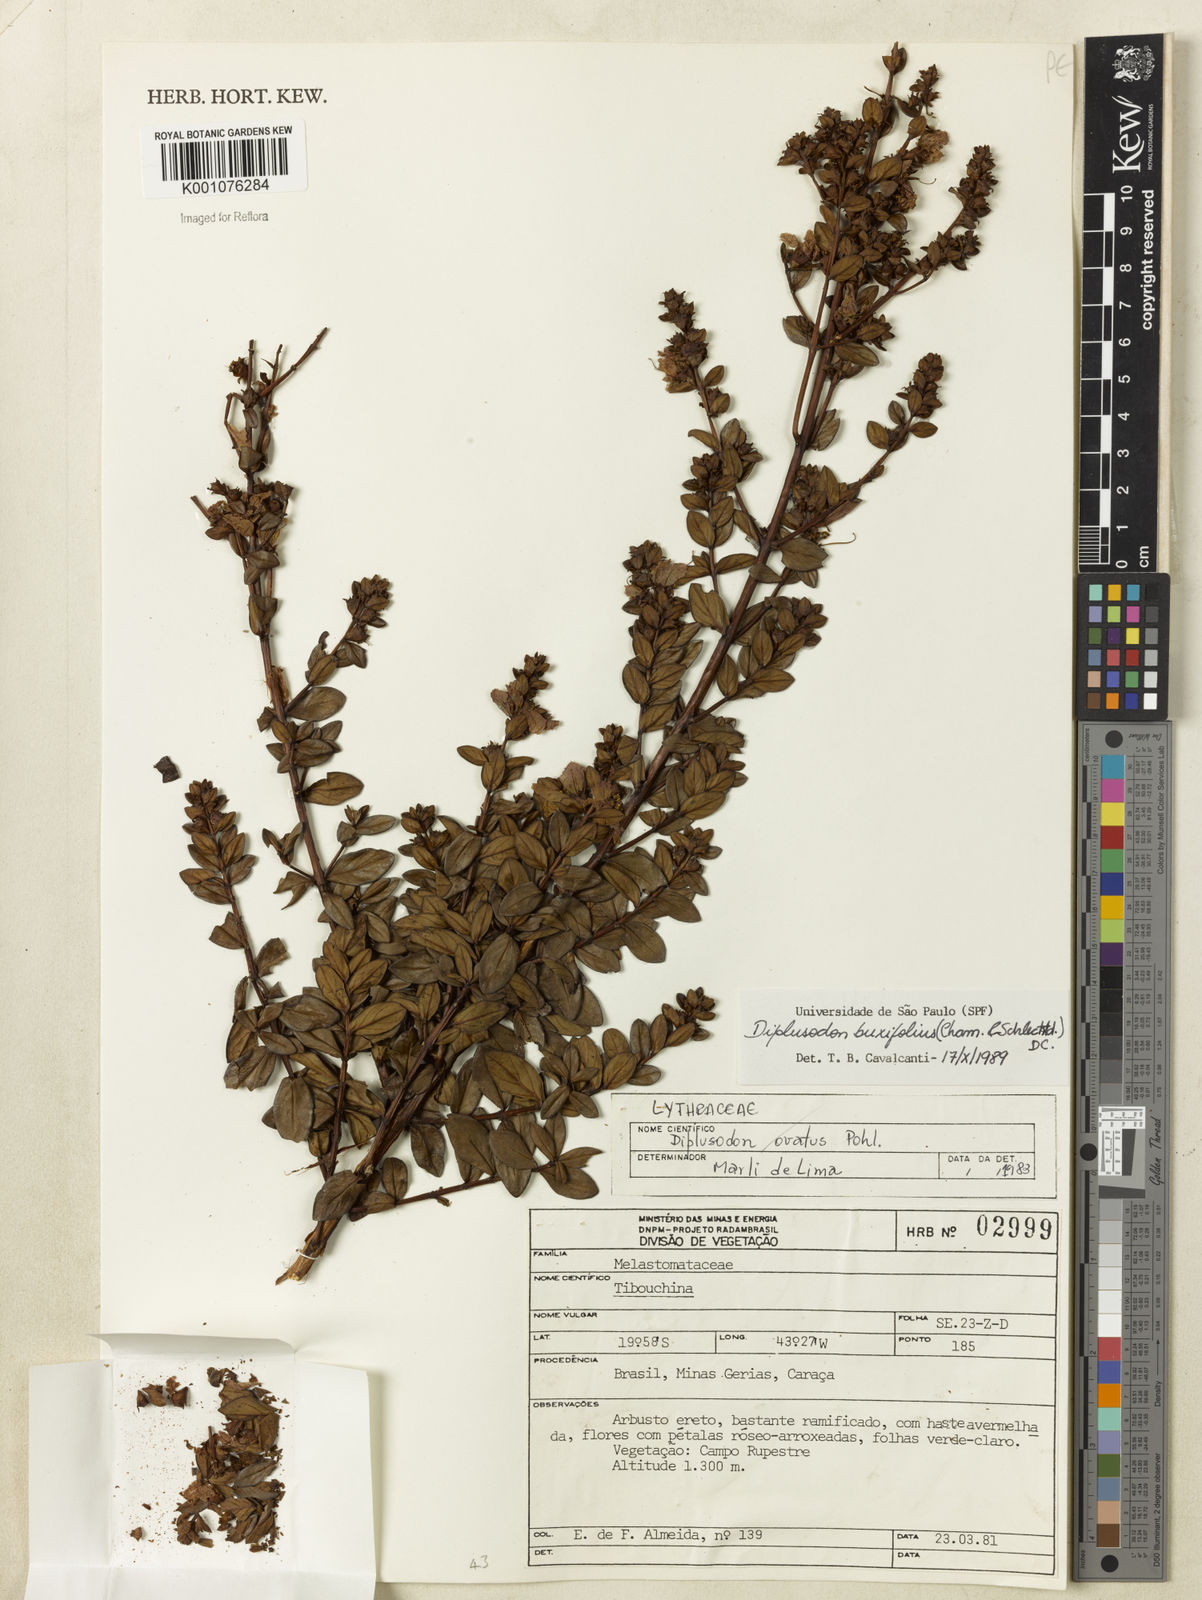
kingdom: Plantae
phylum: Tracheophyta
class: Magnoliopsida
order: Myrtales
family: Lythraceae
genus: Diplusodon
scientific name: Diplusodon buxifolius
